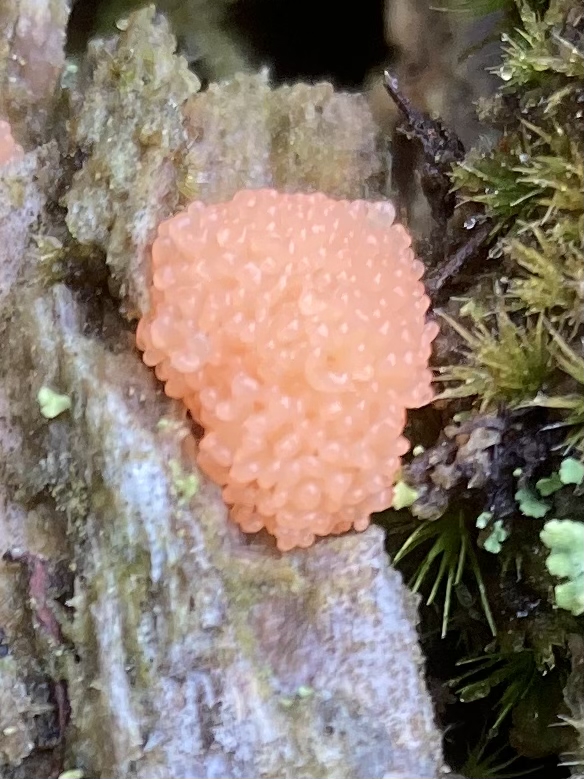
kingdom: Protozoa
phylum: Mycetozoa
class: Myxomycetes
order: Cribrariales
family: Tubiferaceae
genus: Tubifera
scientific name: Tubifera ferruginosa
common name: kanel-støvrør
